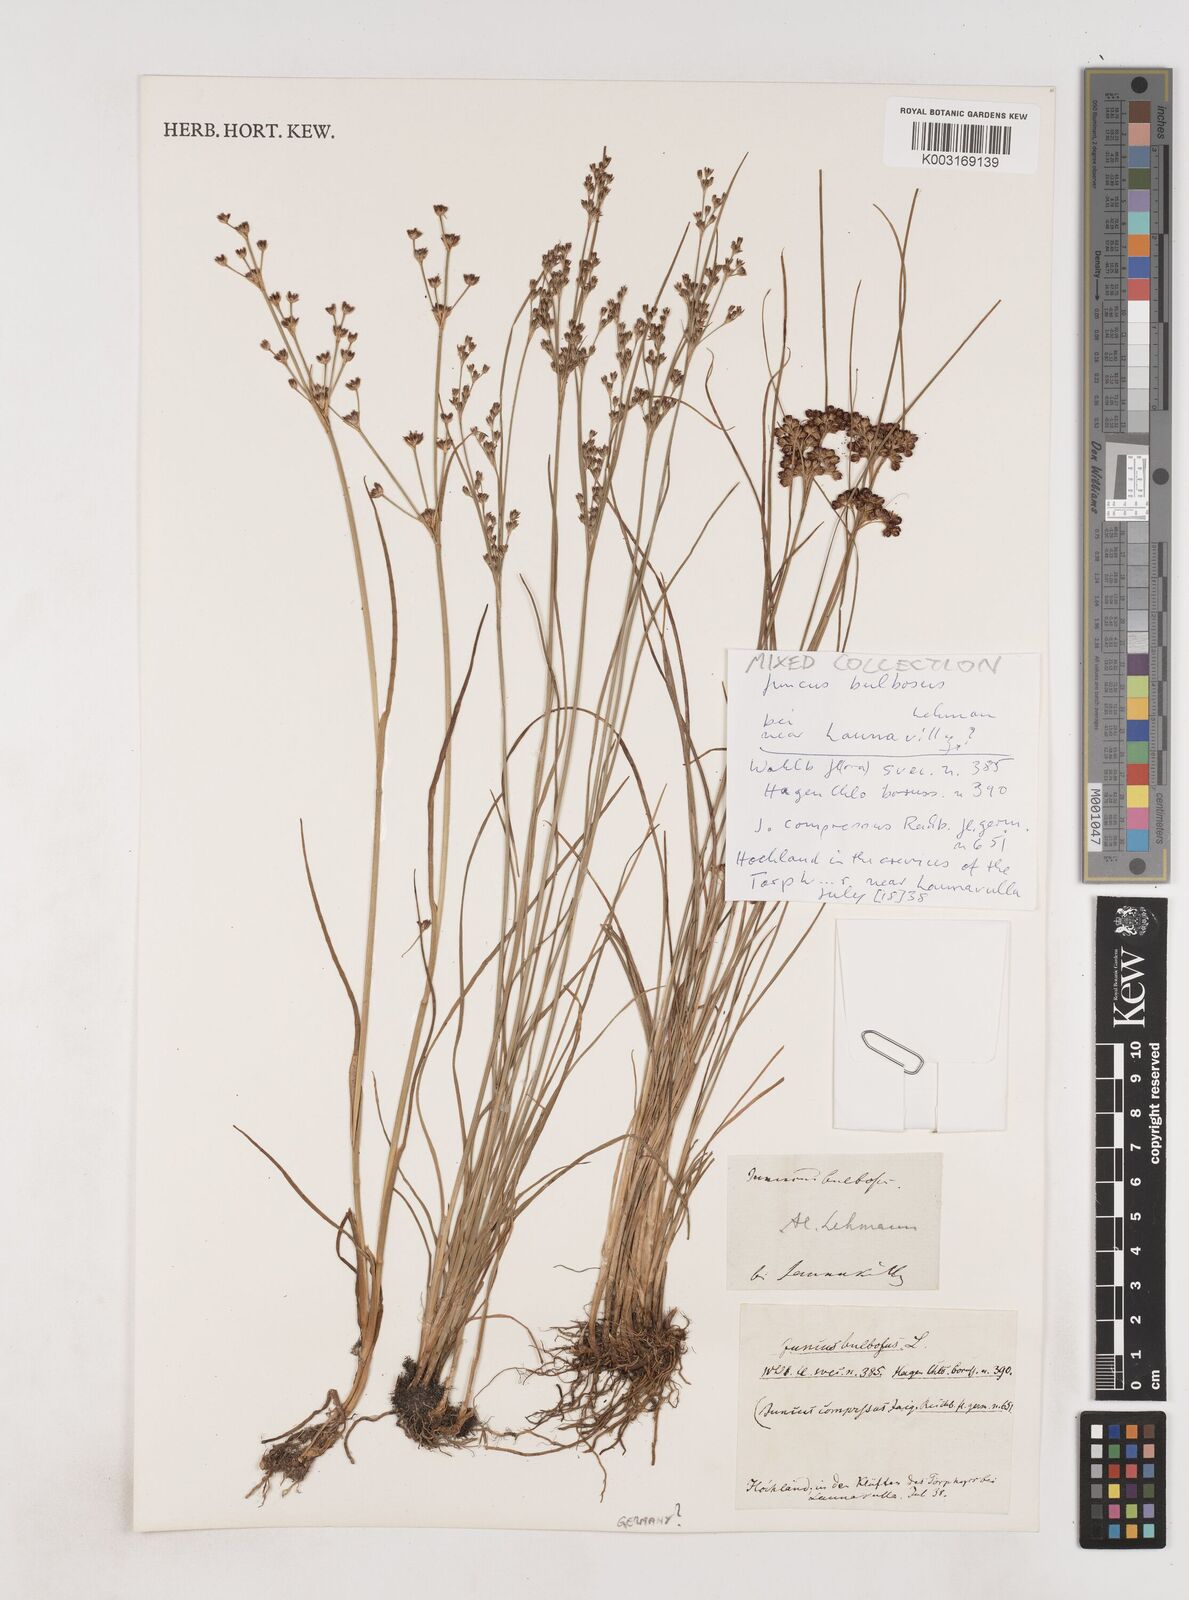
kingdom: Plantae
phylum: Tracheophyta
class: Liliopsida
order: Poales
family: Juncaceae
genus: Juncus
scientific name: Juncus bulbosus
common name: Bulbous rush
